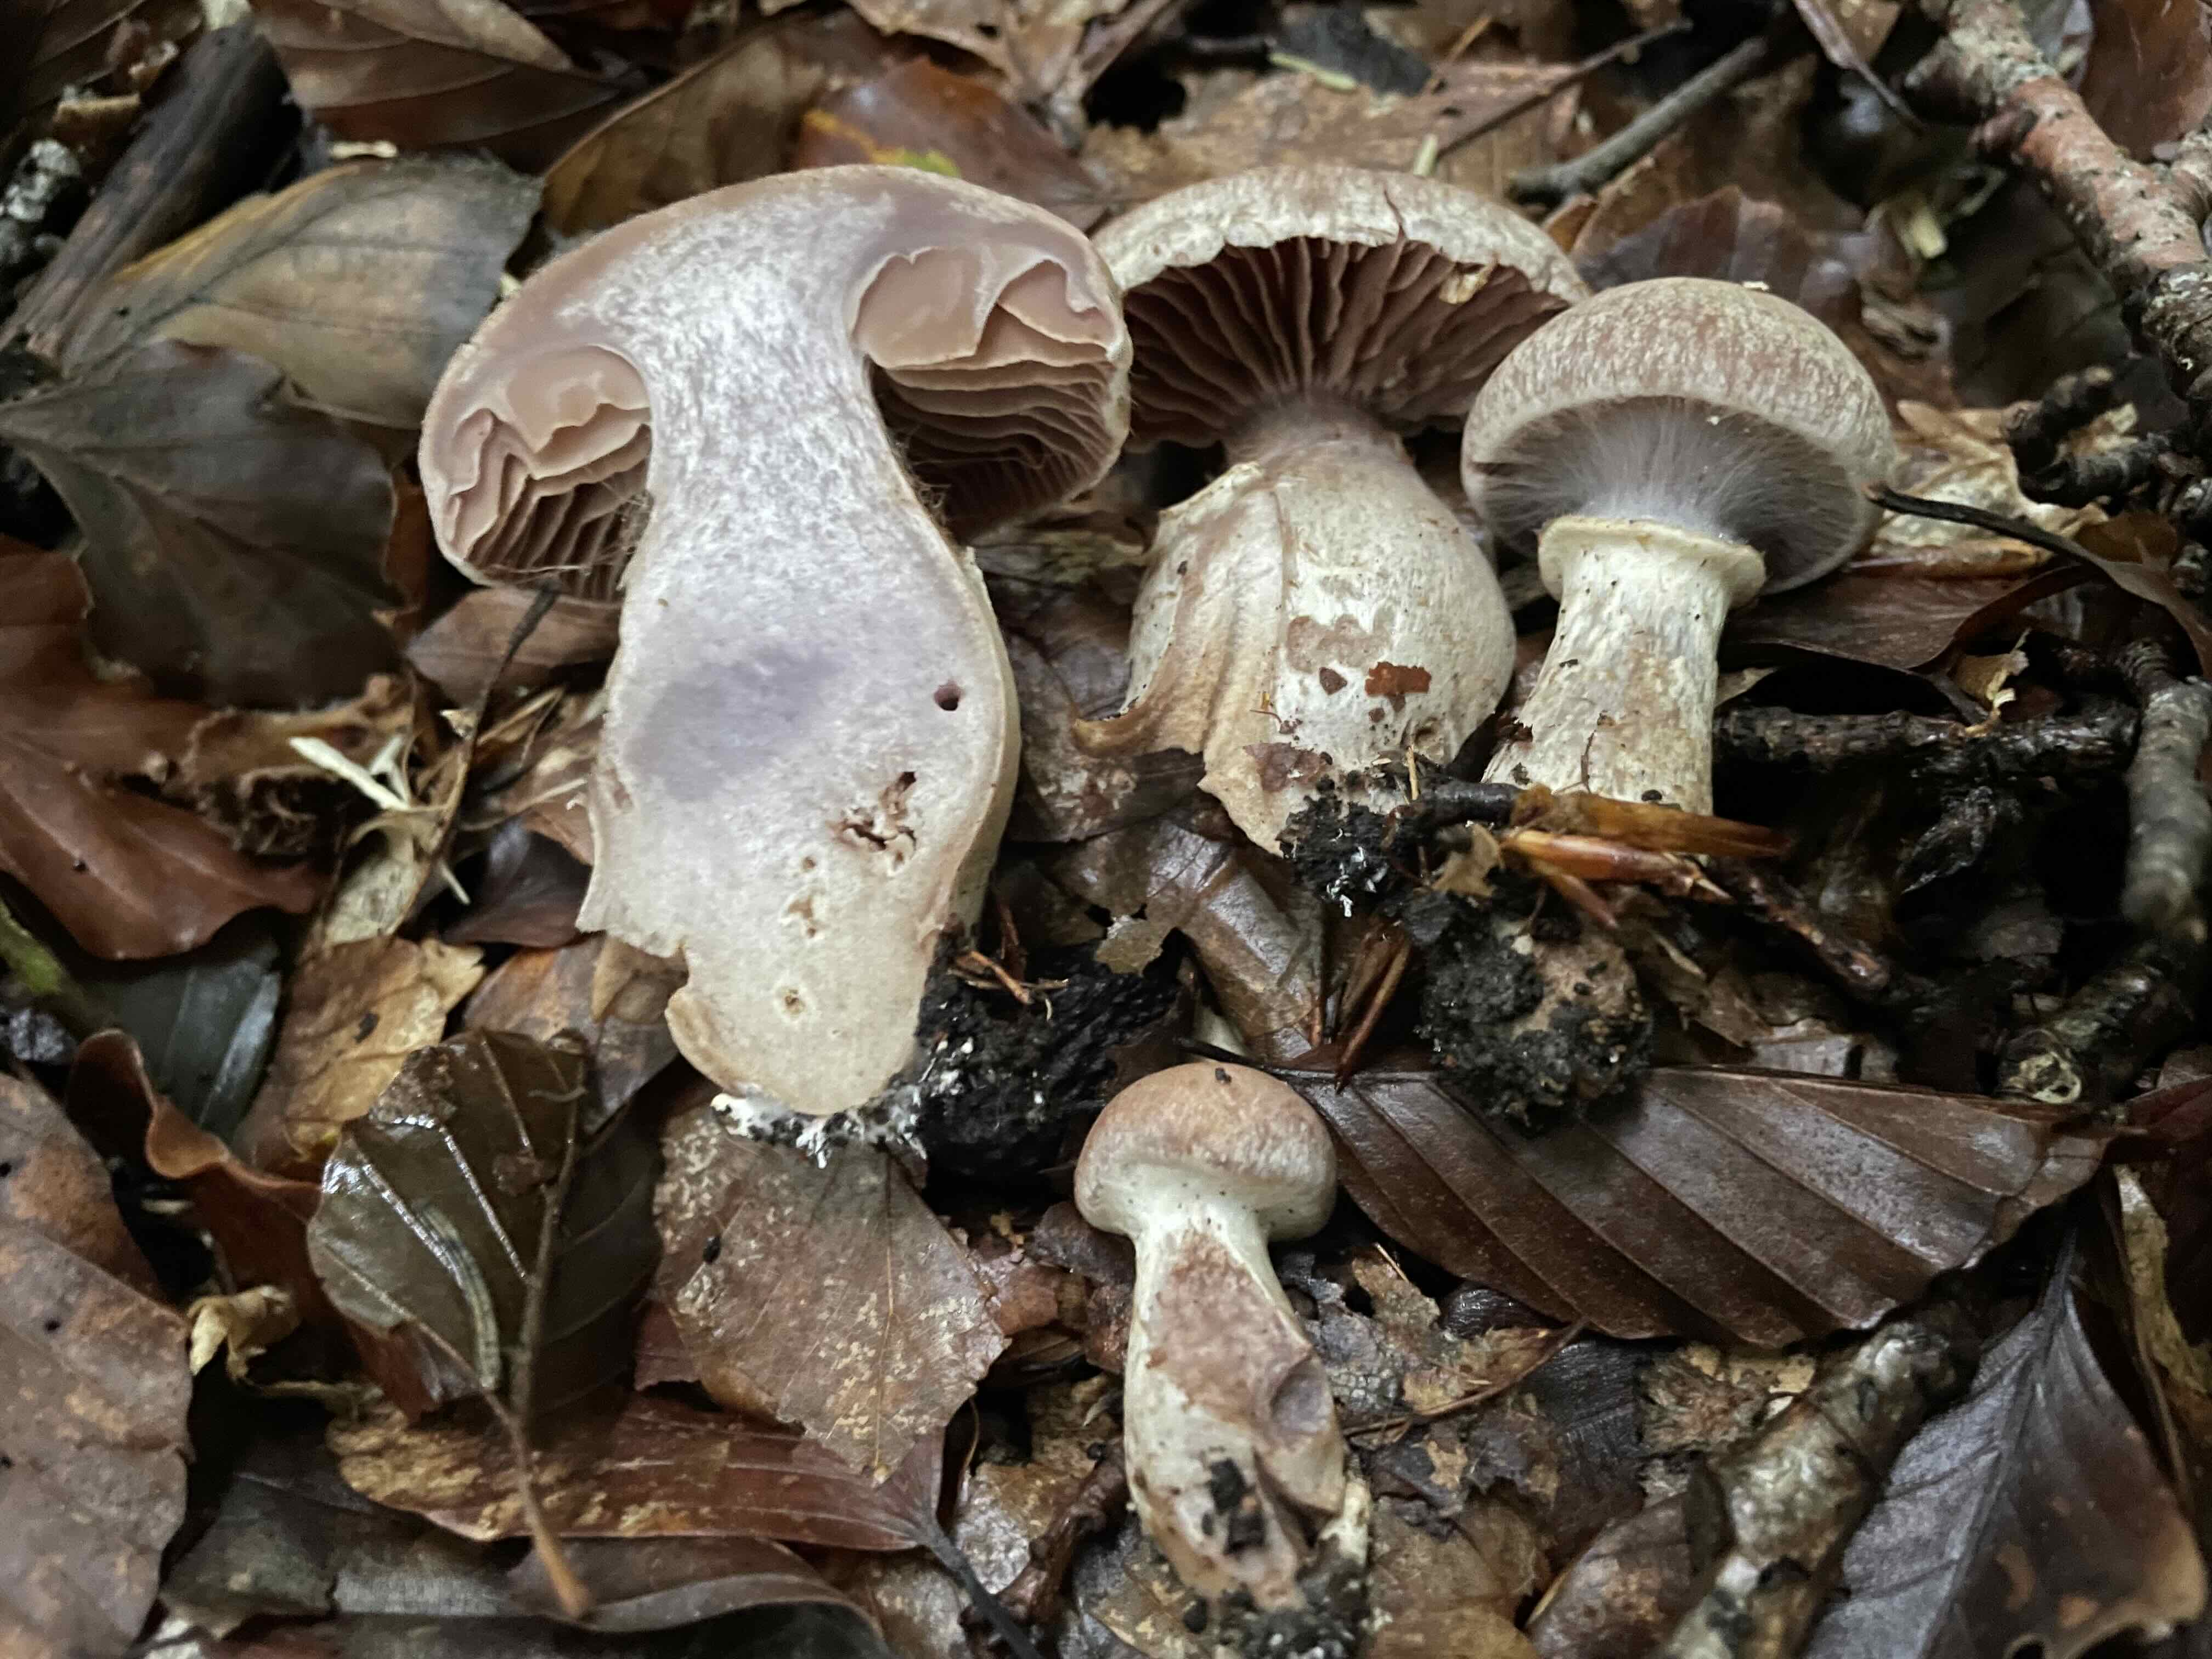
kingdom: Fungi
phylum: Basidiomycota
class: Agaricomycetes
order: Agaricales
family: Cortinariaceae
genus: Cortinarius
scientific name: Cortinarius torvus
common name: champignonagtig slørhat
